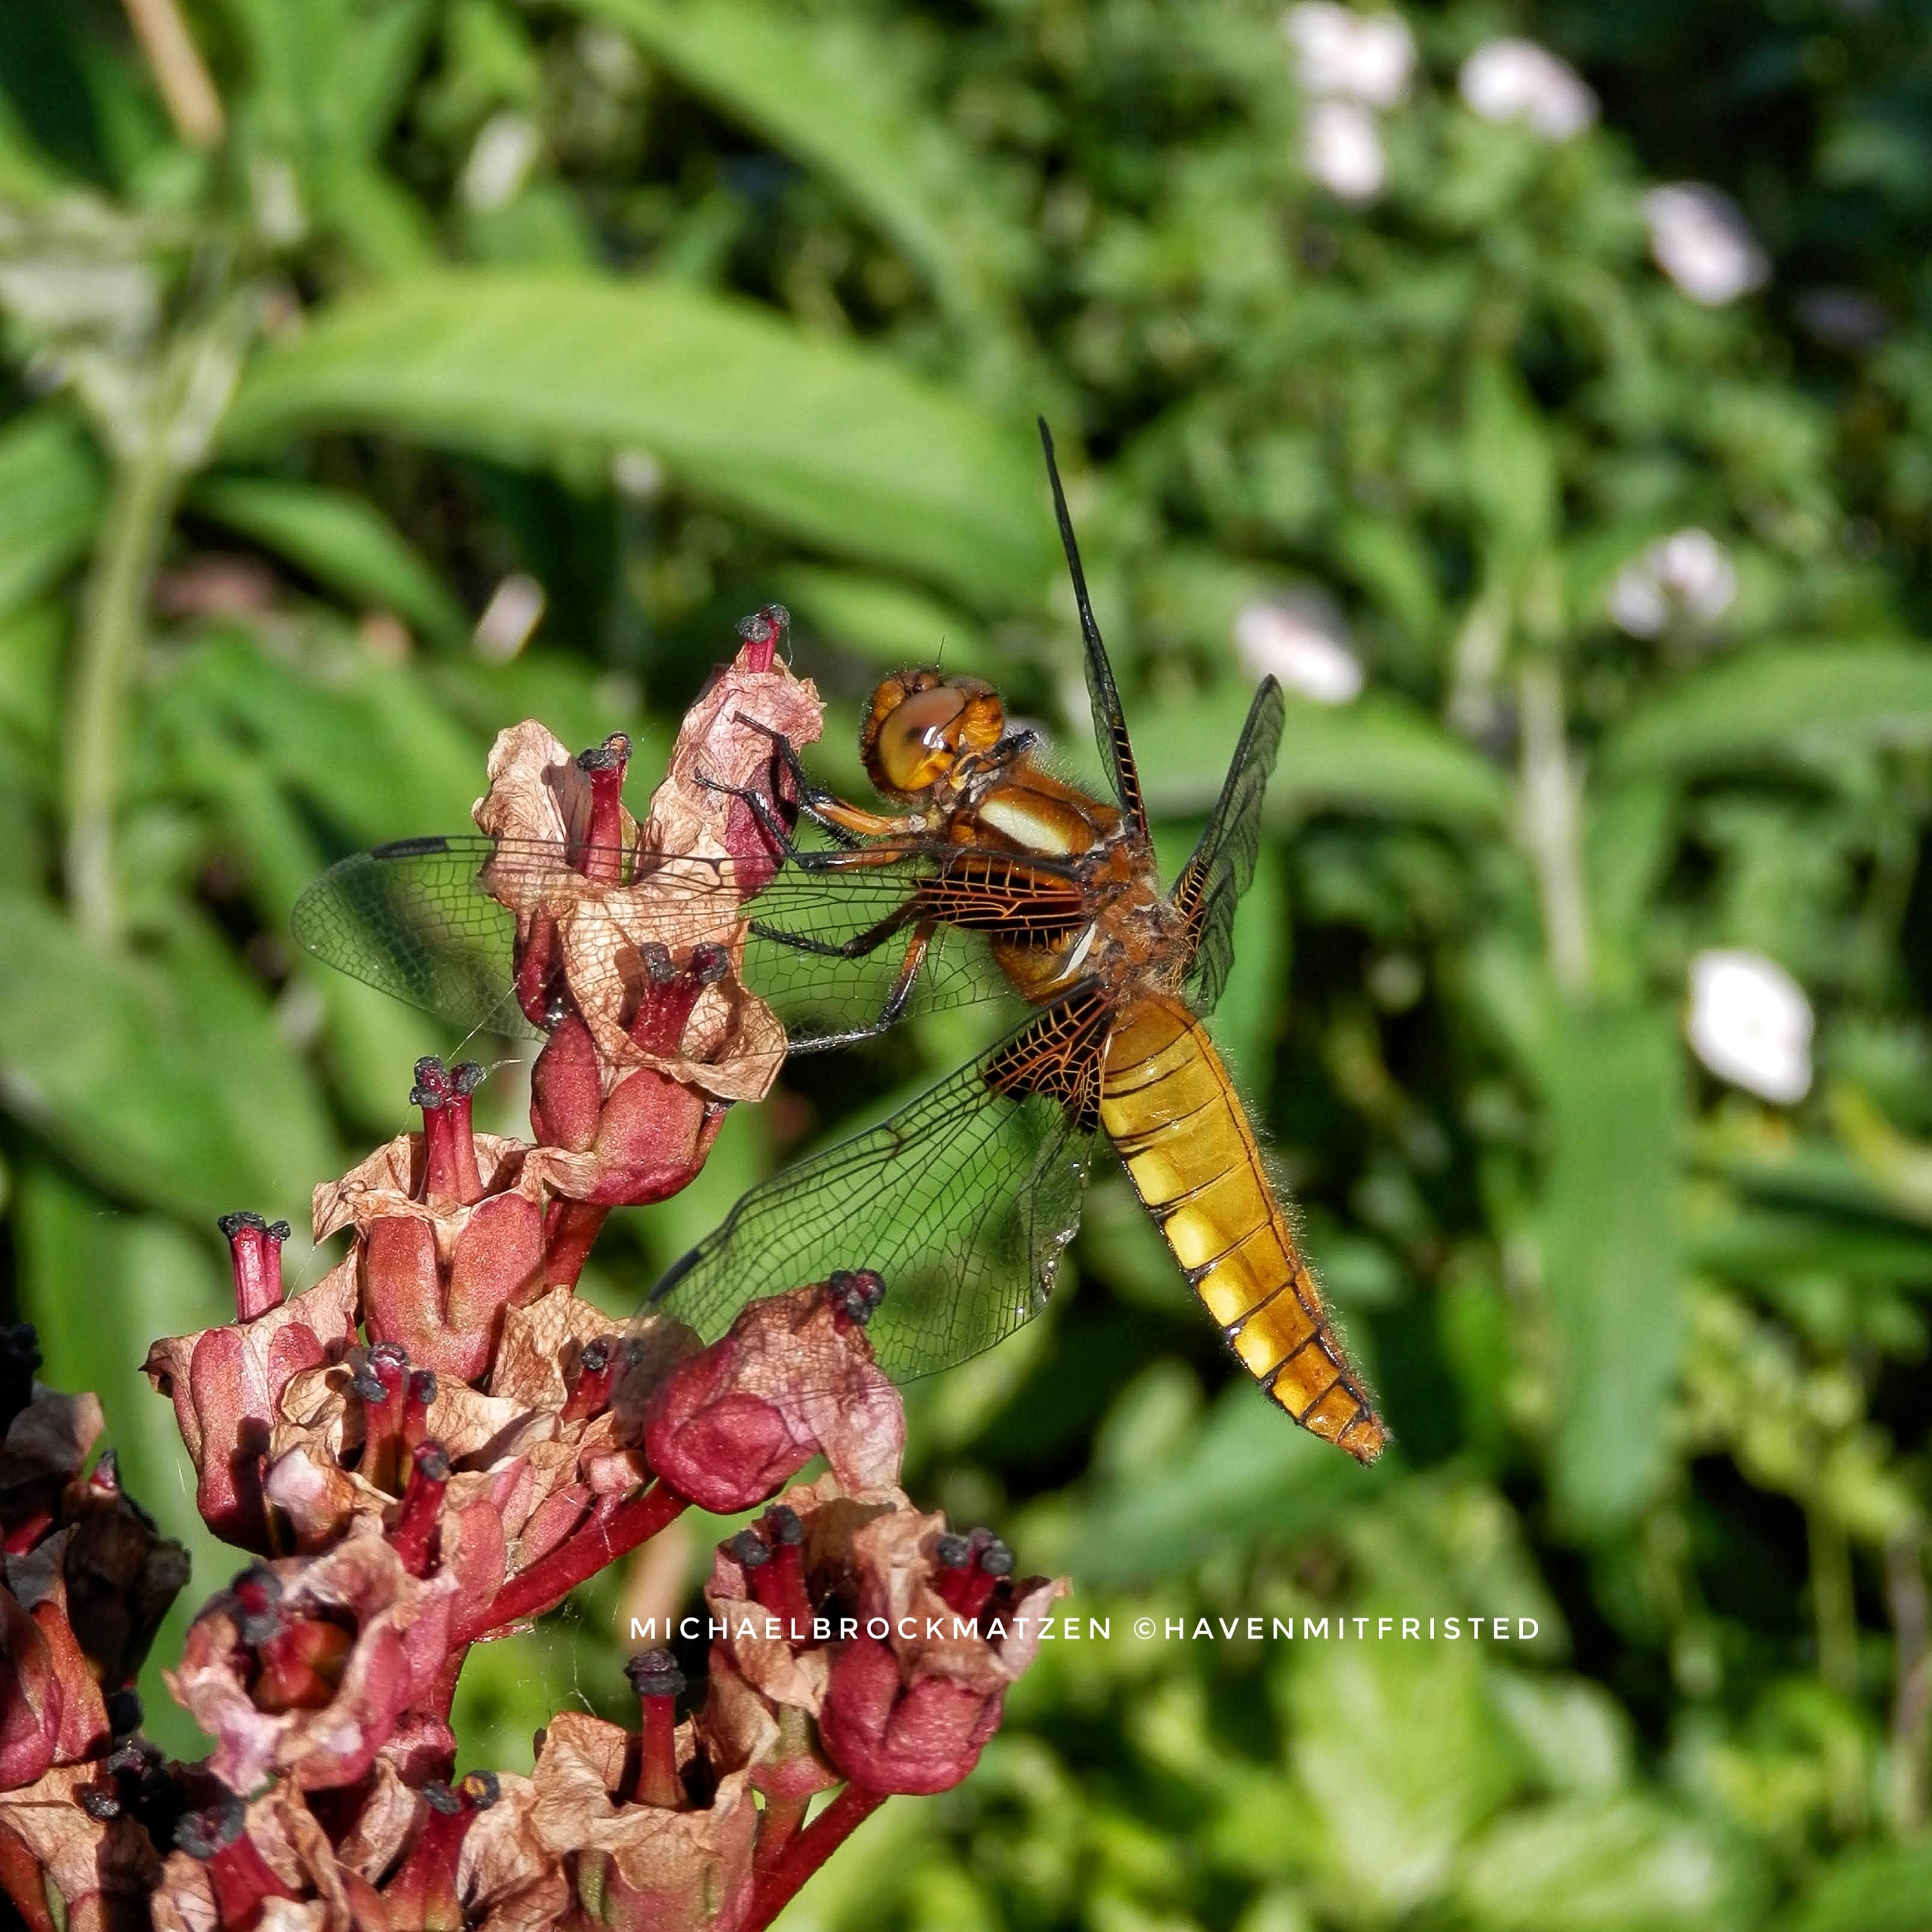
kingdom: Animalia
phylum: Arthropoda
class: Insecta
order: Odonata
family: Libellulidae
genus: Libellula
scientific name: Libellula depressa
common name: Blå libel
